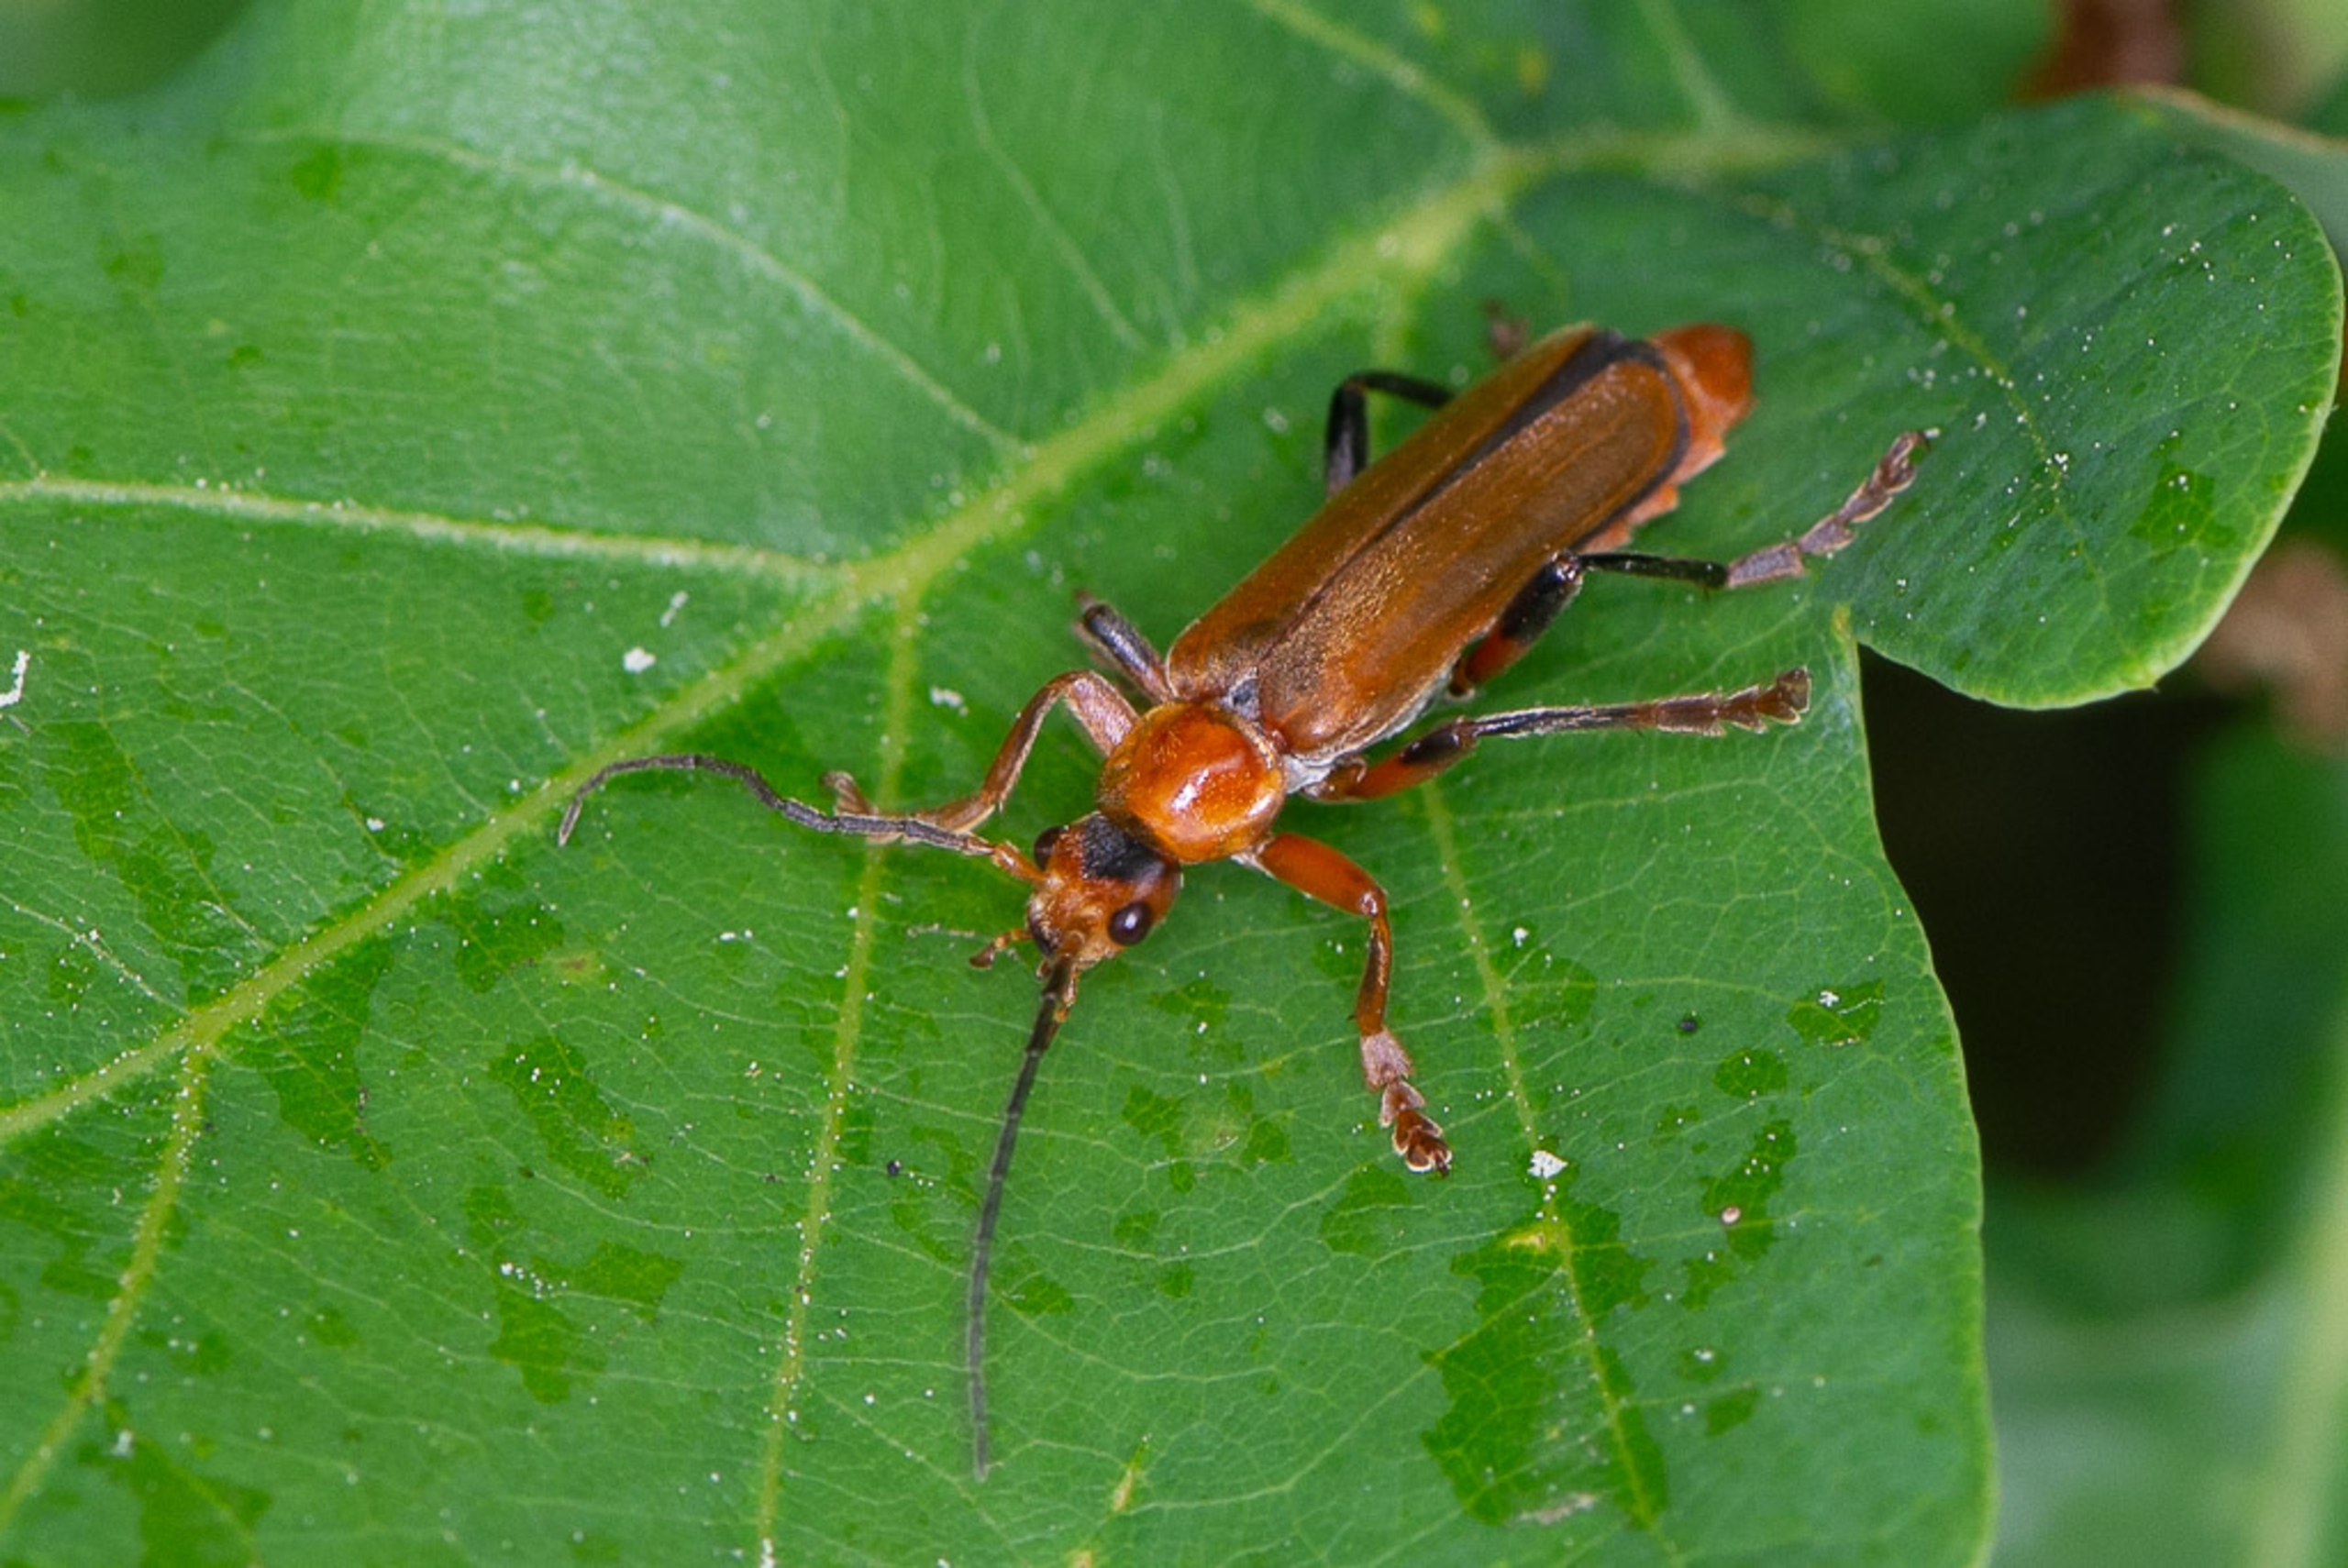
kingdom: Animalia
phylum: Arthropoda
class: Insecta
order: Coleoptera
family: Cantharidae
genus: Cantharis
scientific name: Cantharis livida
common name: Gul blødvinge
